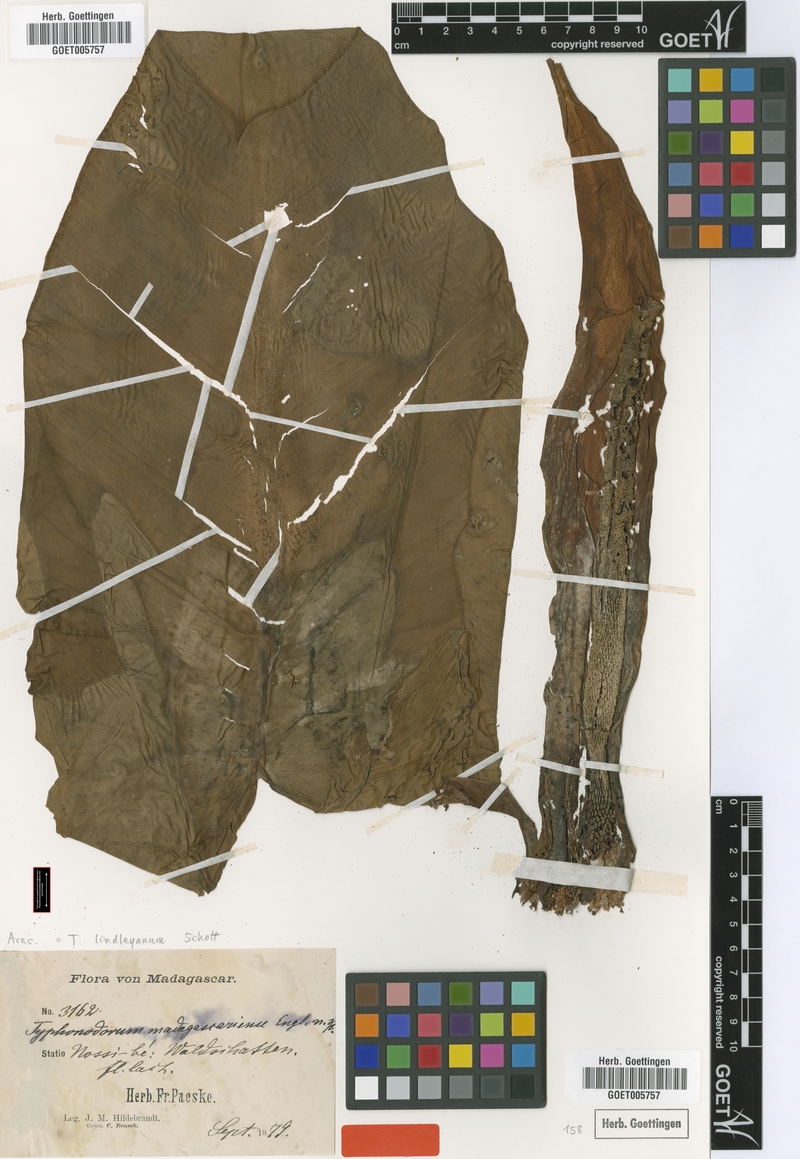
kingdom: Plantae
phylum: Tracheophyta
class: Liliopsida
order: Alismatales
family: Araceae
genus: Typhonodorum
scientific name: Typhonodorum lindleyanum
